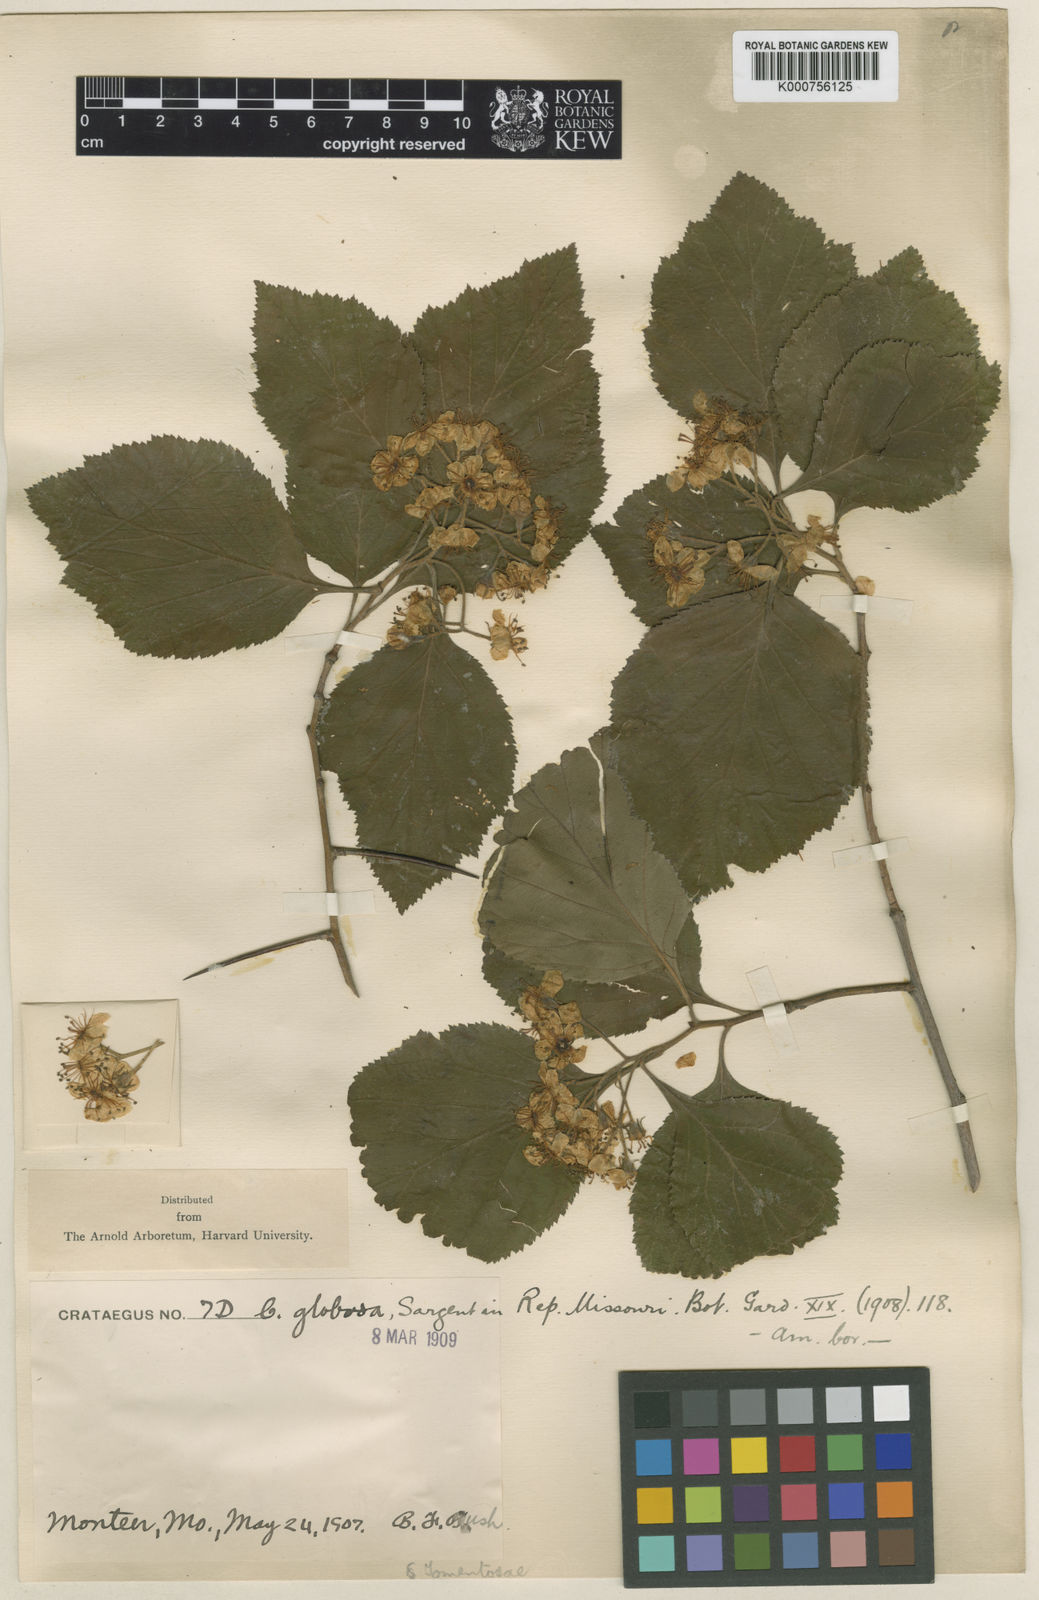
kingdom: Plantae
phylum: Tracheophyta
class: Magnoliopsida
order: Rosales
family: Rosaceae
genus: Crataegus
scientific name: Crataegus calpodendron
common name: Pear hawthorn
